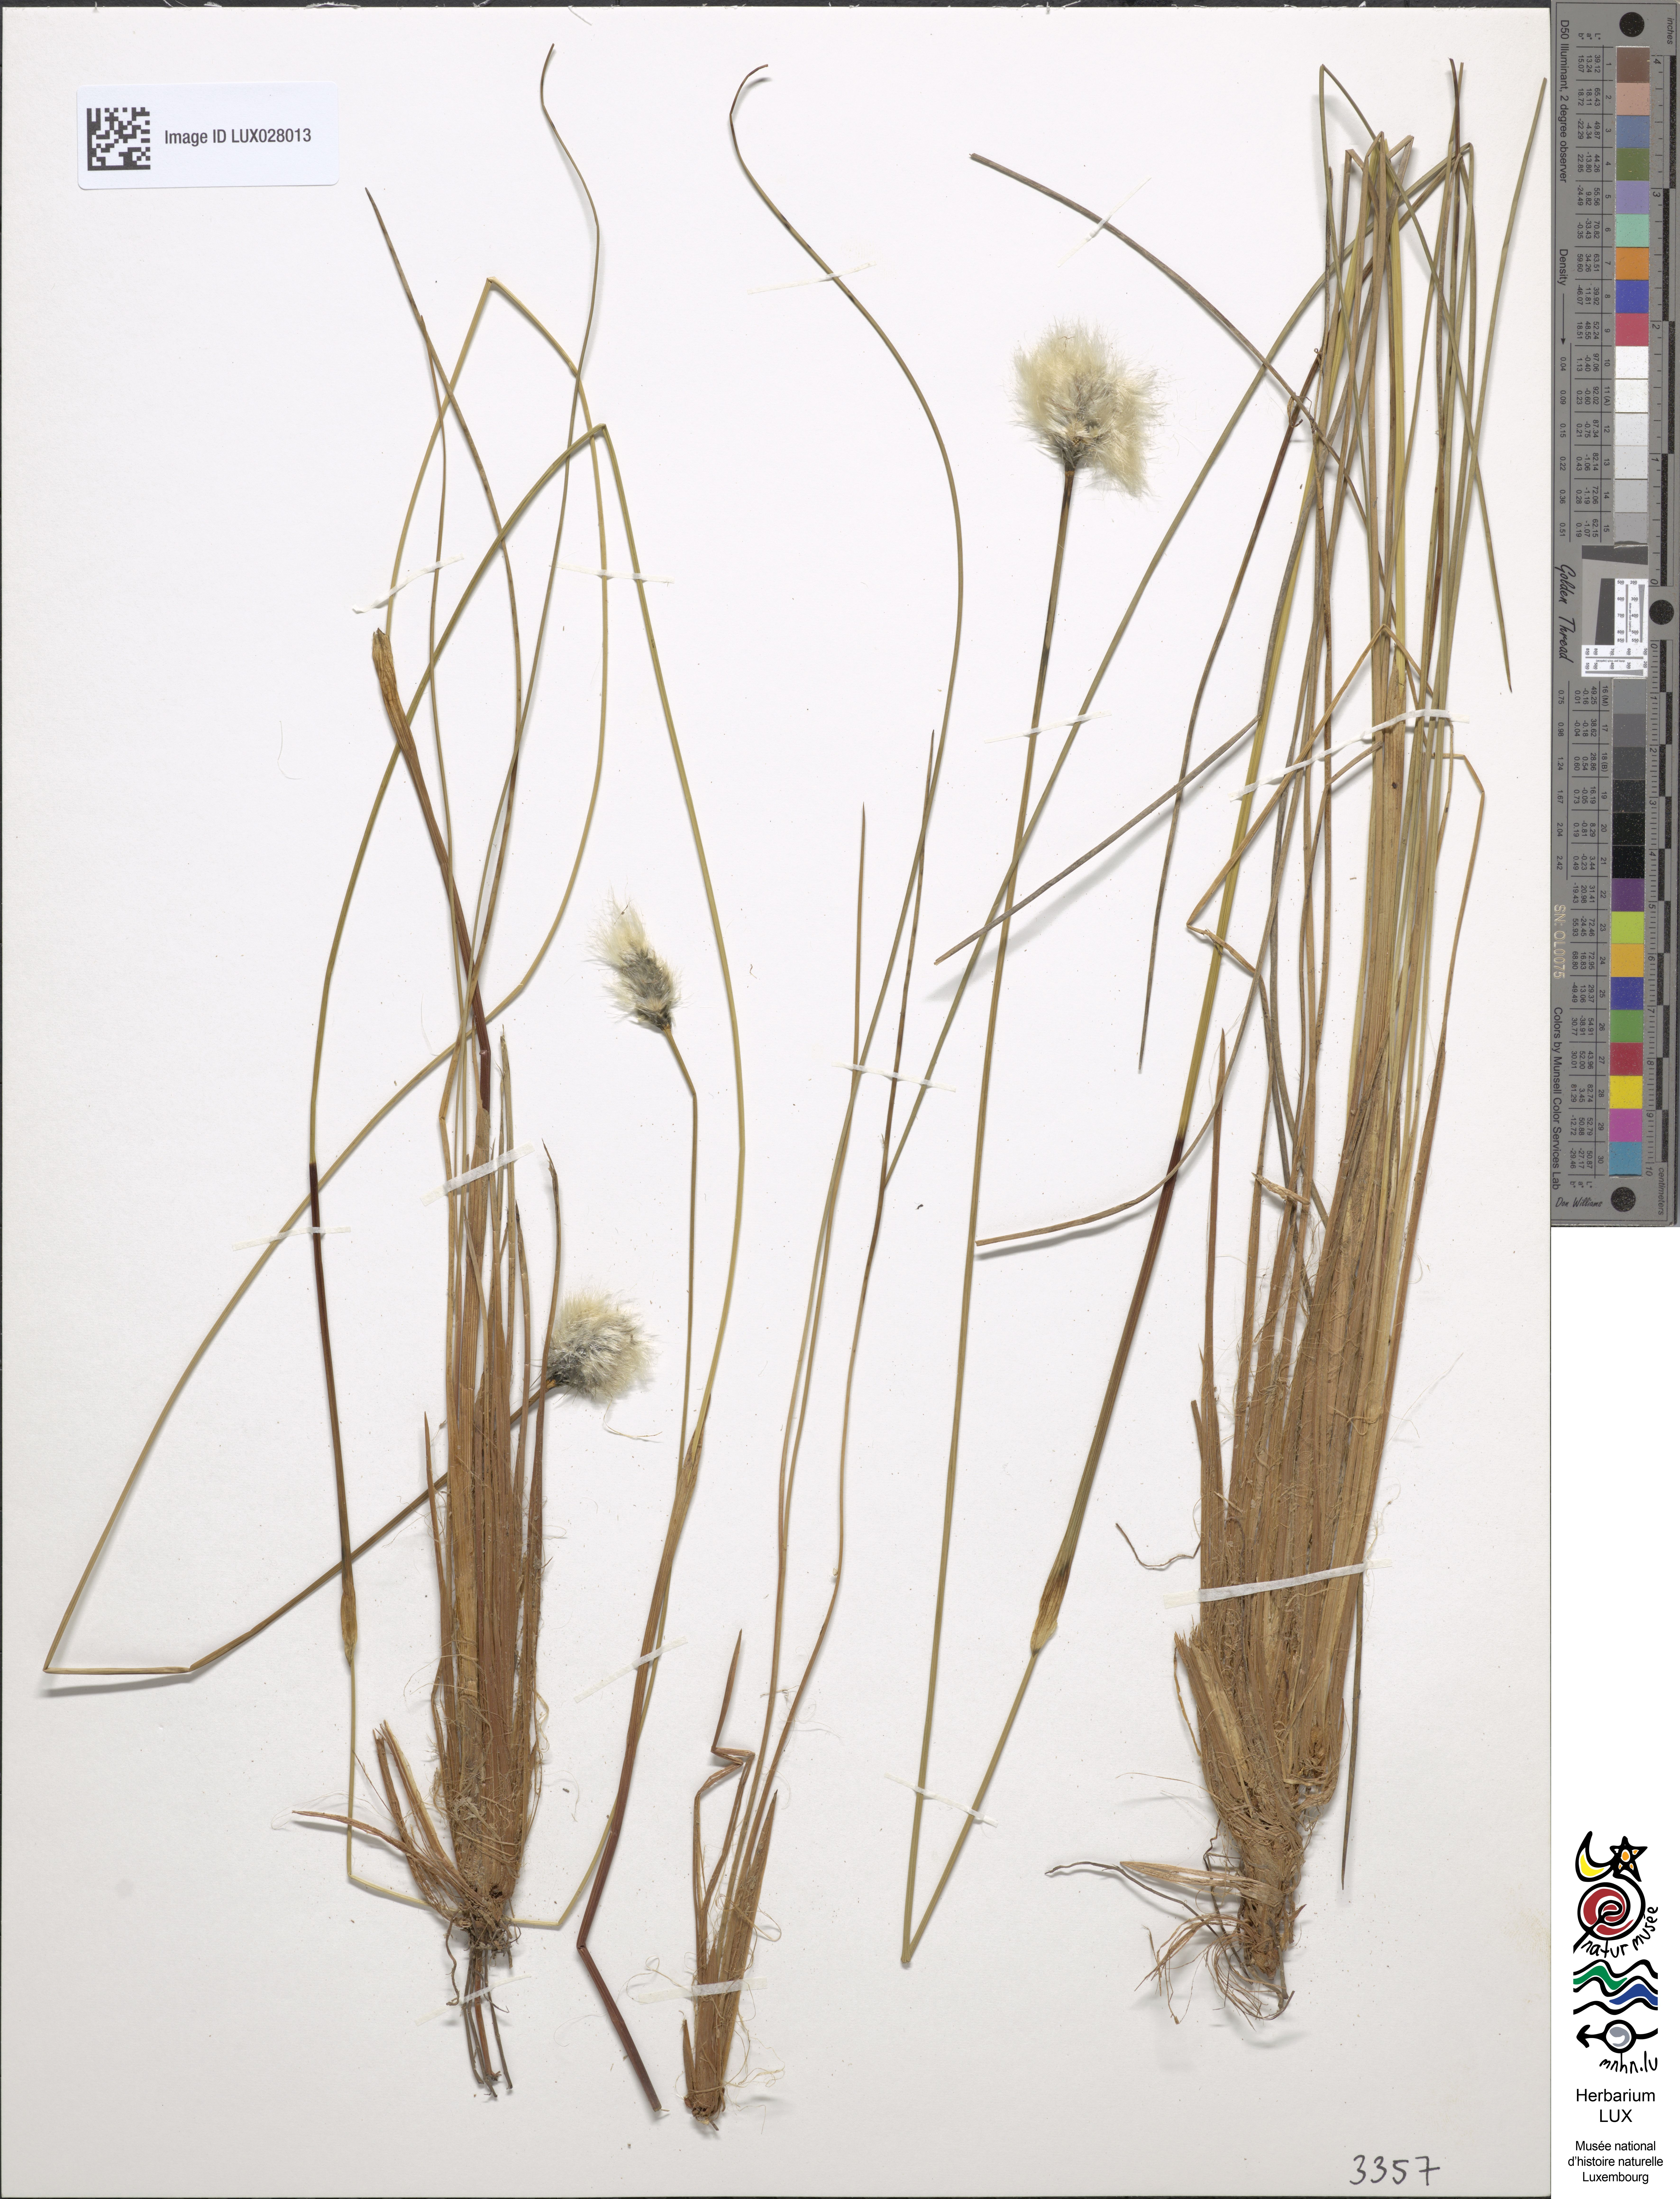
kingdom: Plantae
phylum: Tracheophyta
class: Liliopsida
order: Poales
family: Cyperaceae
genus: Eriophorum
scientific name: Eriophorum vaginatum
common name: Hare's-tail cottongrass
